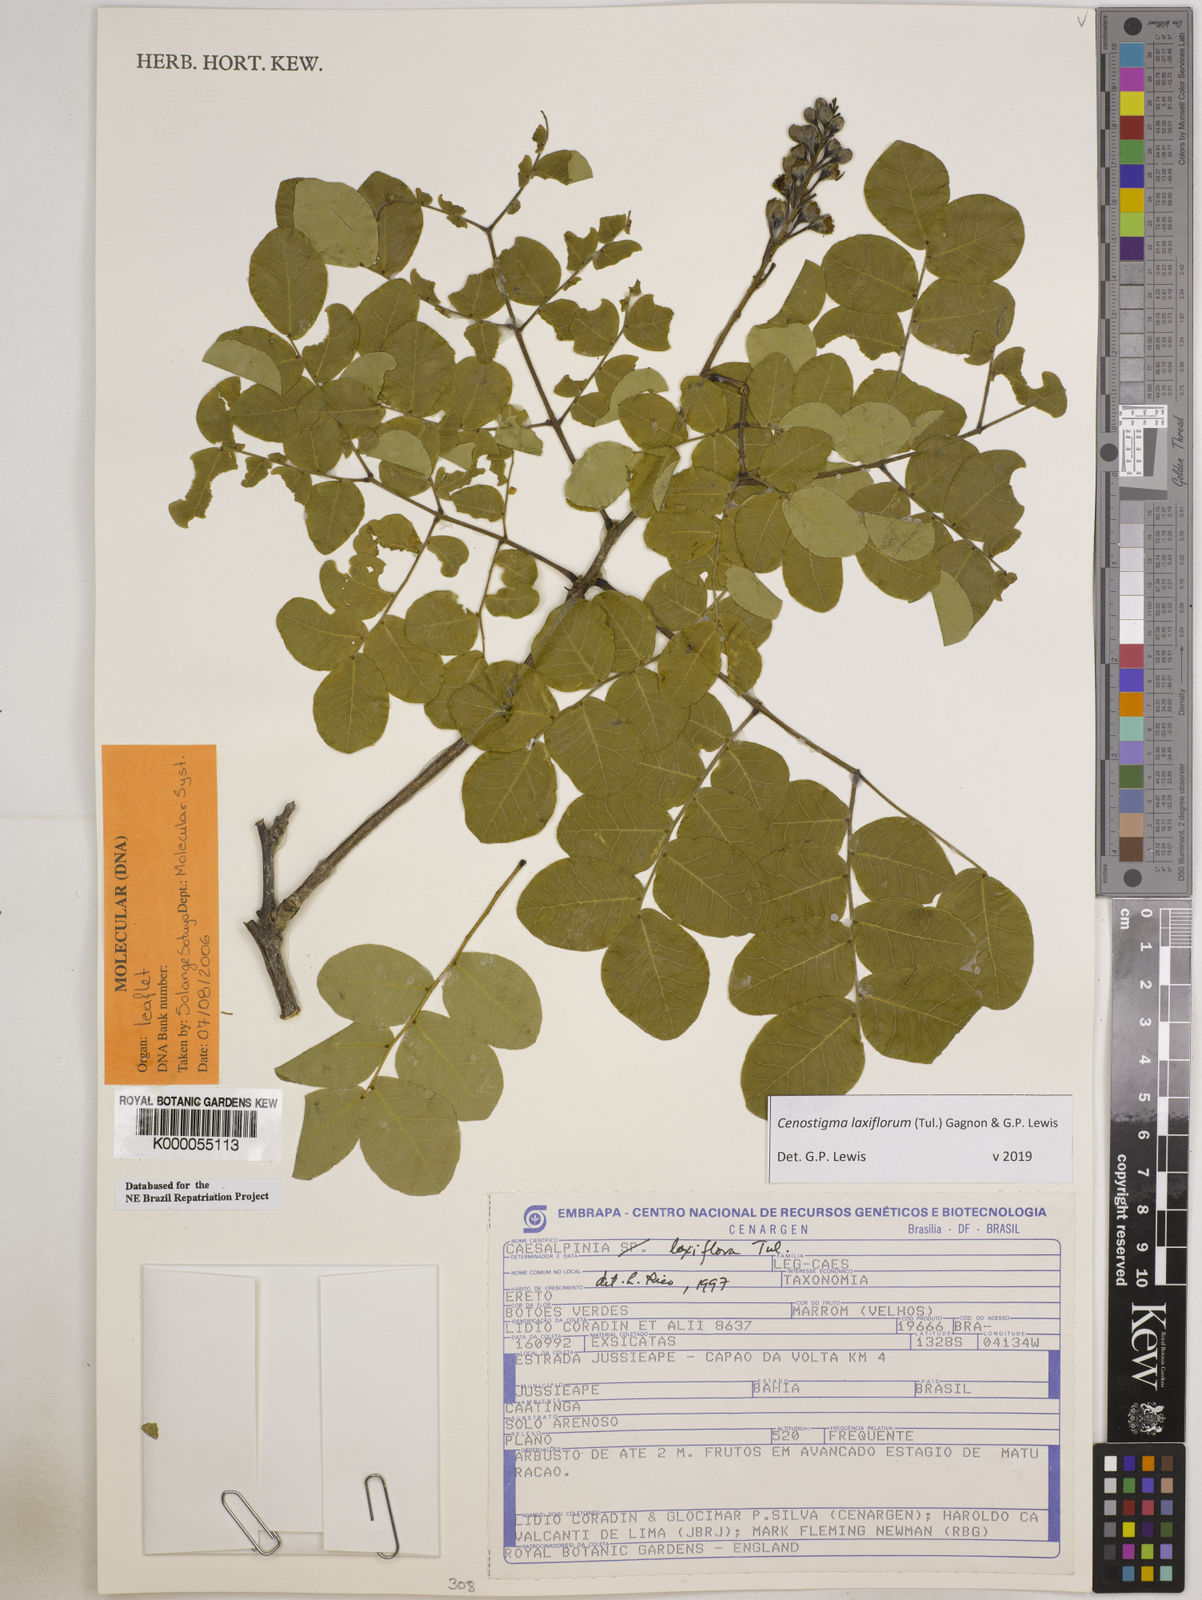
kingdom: Plantae
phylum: Tracheophyta
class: Magnoliopsida
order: Fabales
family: Fabaceae
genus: Cenostigma
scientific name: Cenostigma laxiflorum
